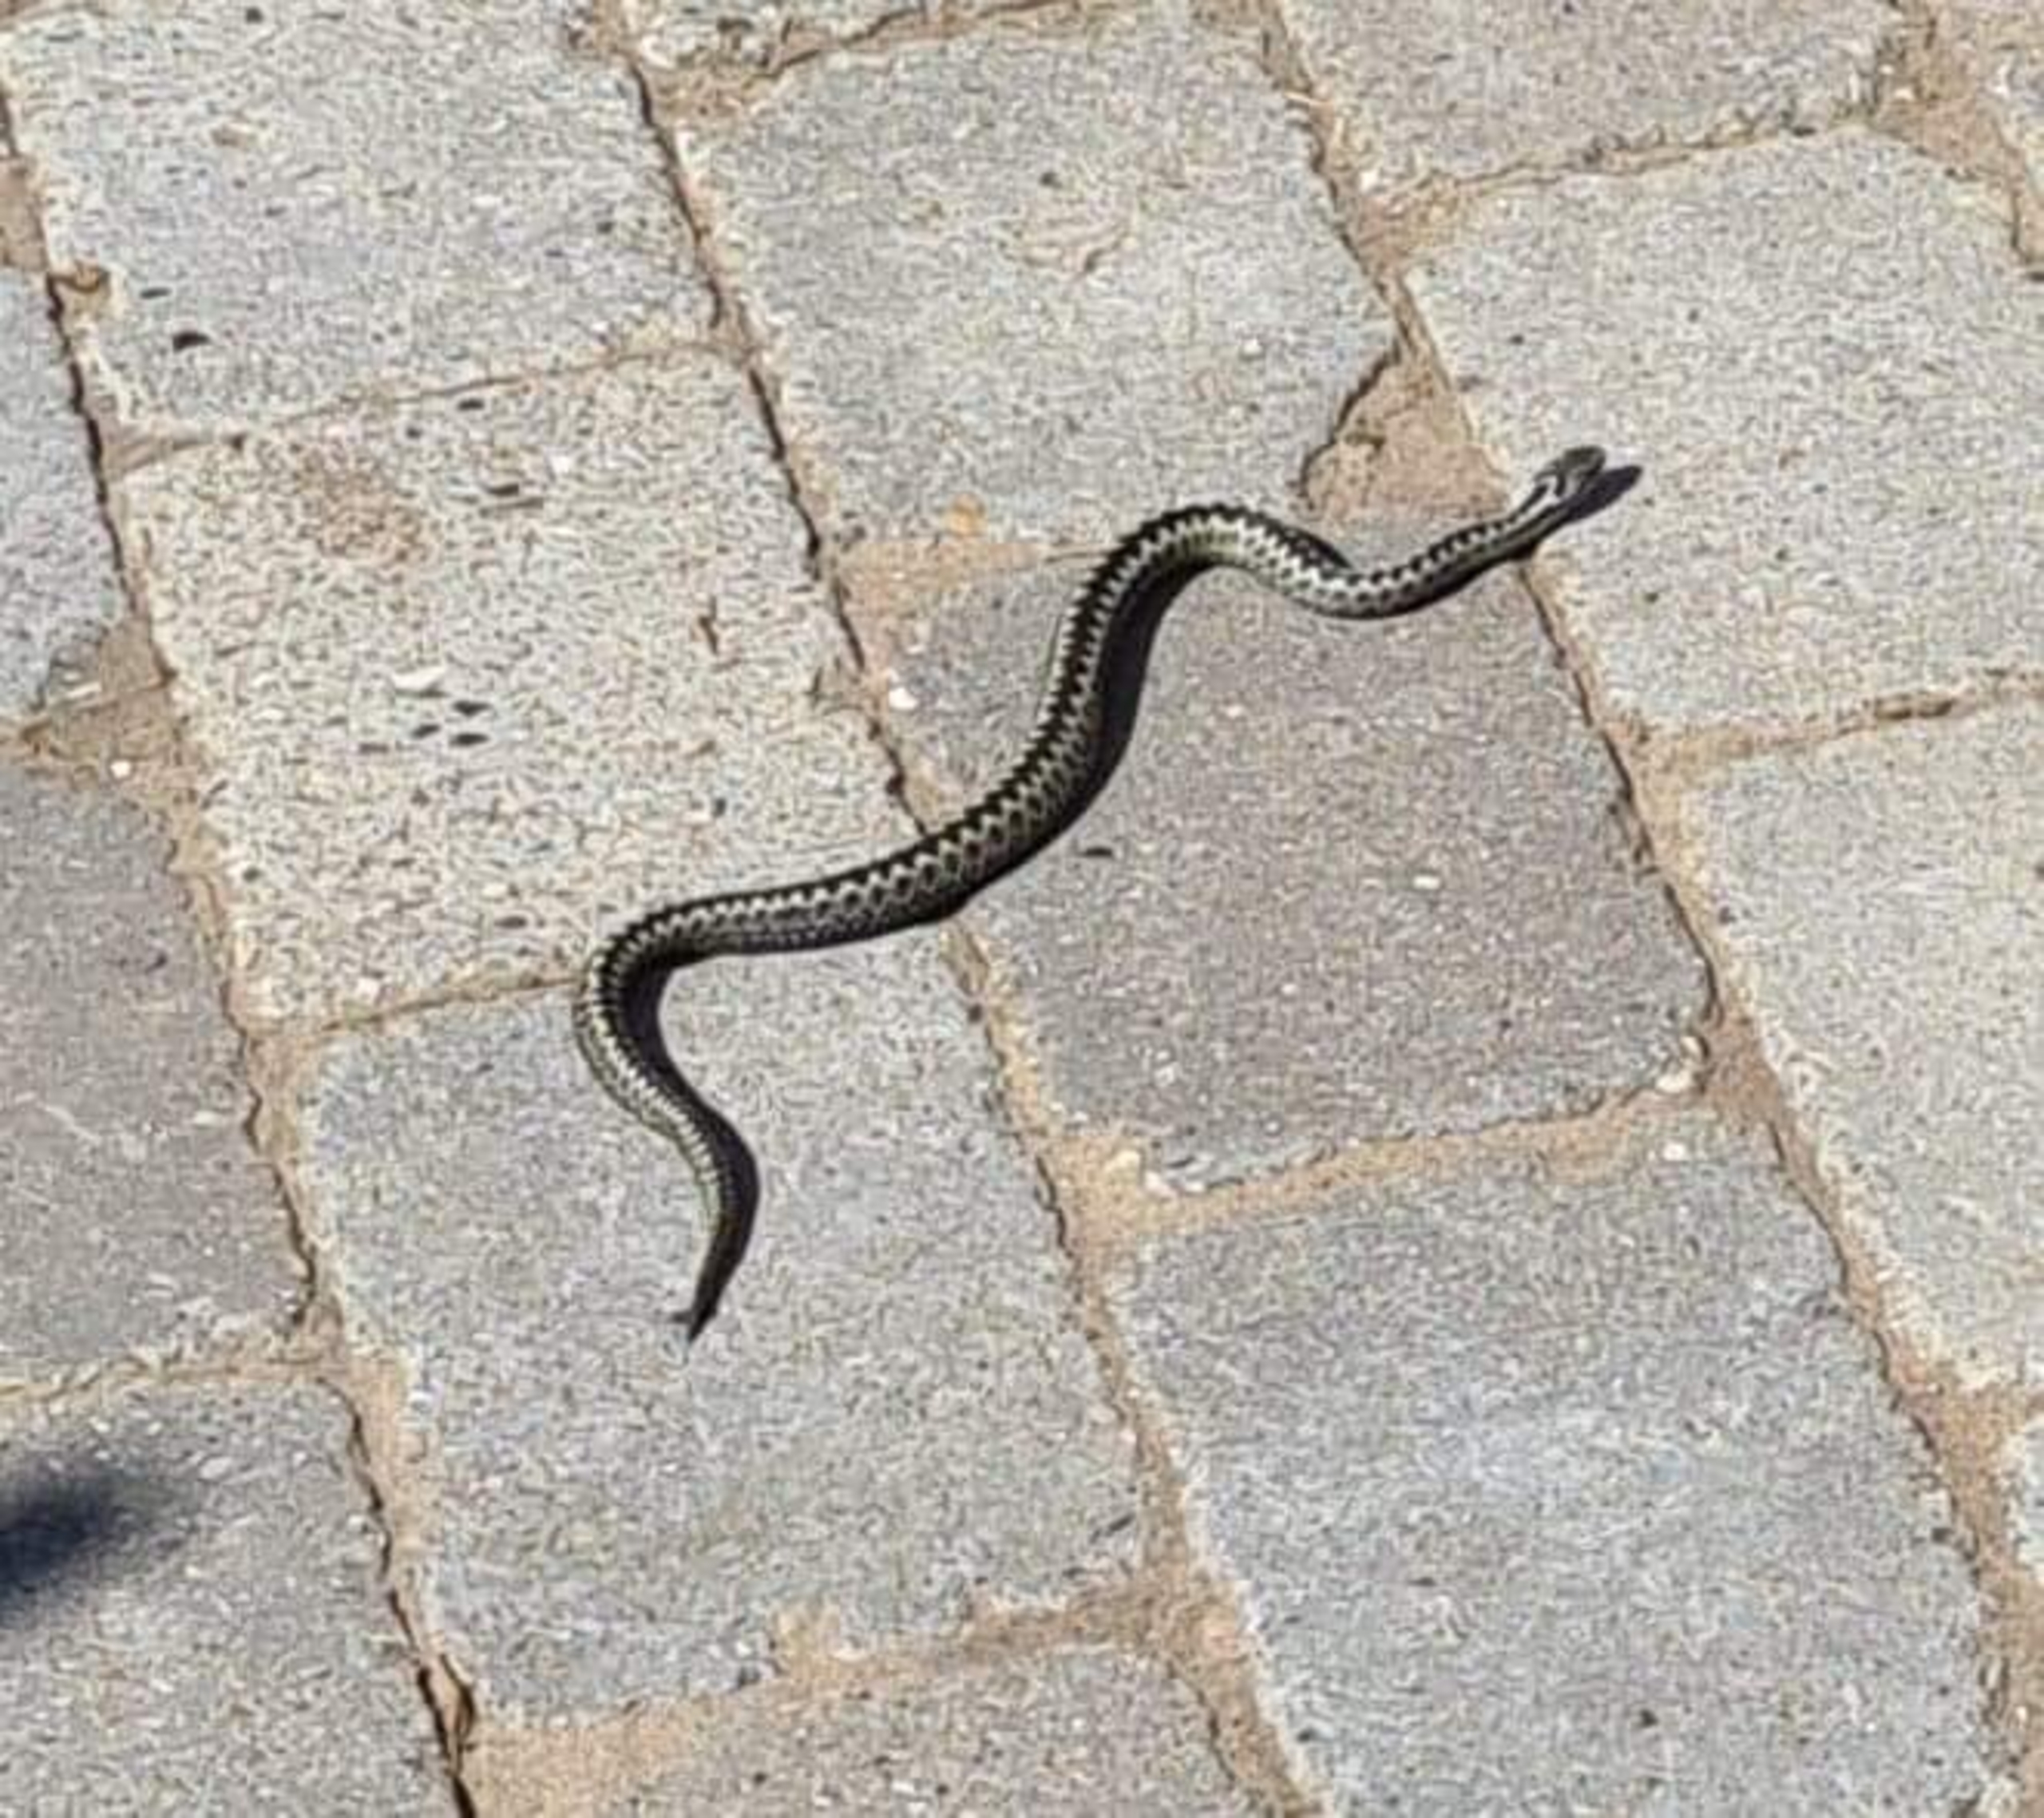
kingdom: Animalia
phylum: Chordata
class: Squamata
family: Viperidae
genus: Vipera
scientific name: Vipera berus
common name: Hugorm
